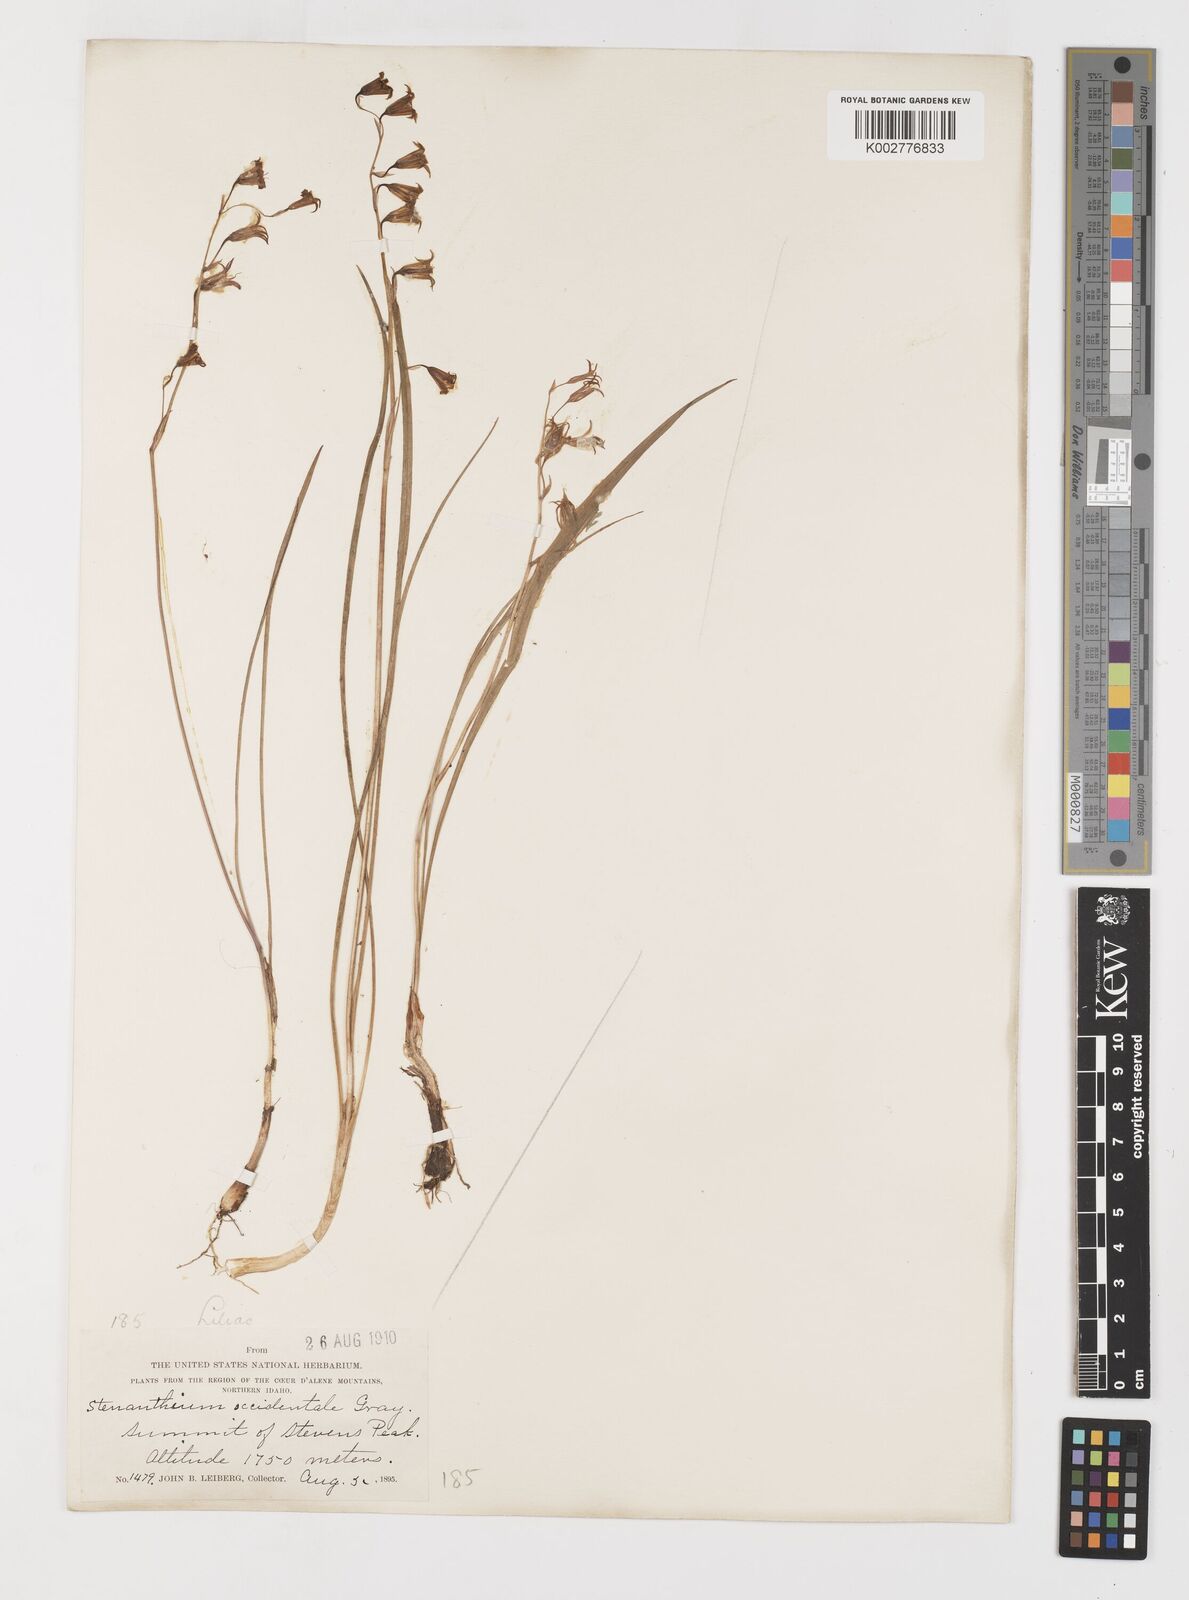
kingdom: Plantae
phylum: Tracheophyta
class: Liliopsida
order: Liliales
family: Melanthiaceae
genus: Anticlea
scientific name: Anticlea occidentalis
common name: Bronze-bells
